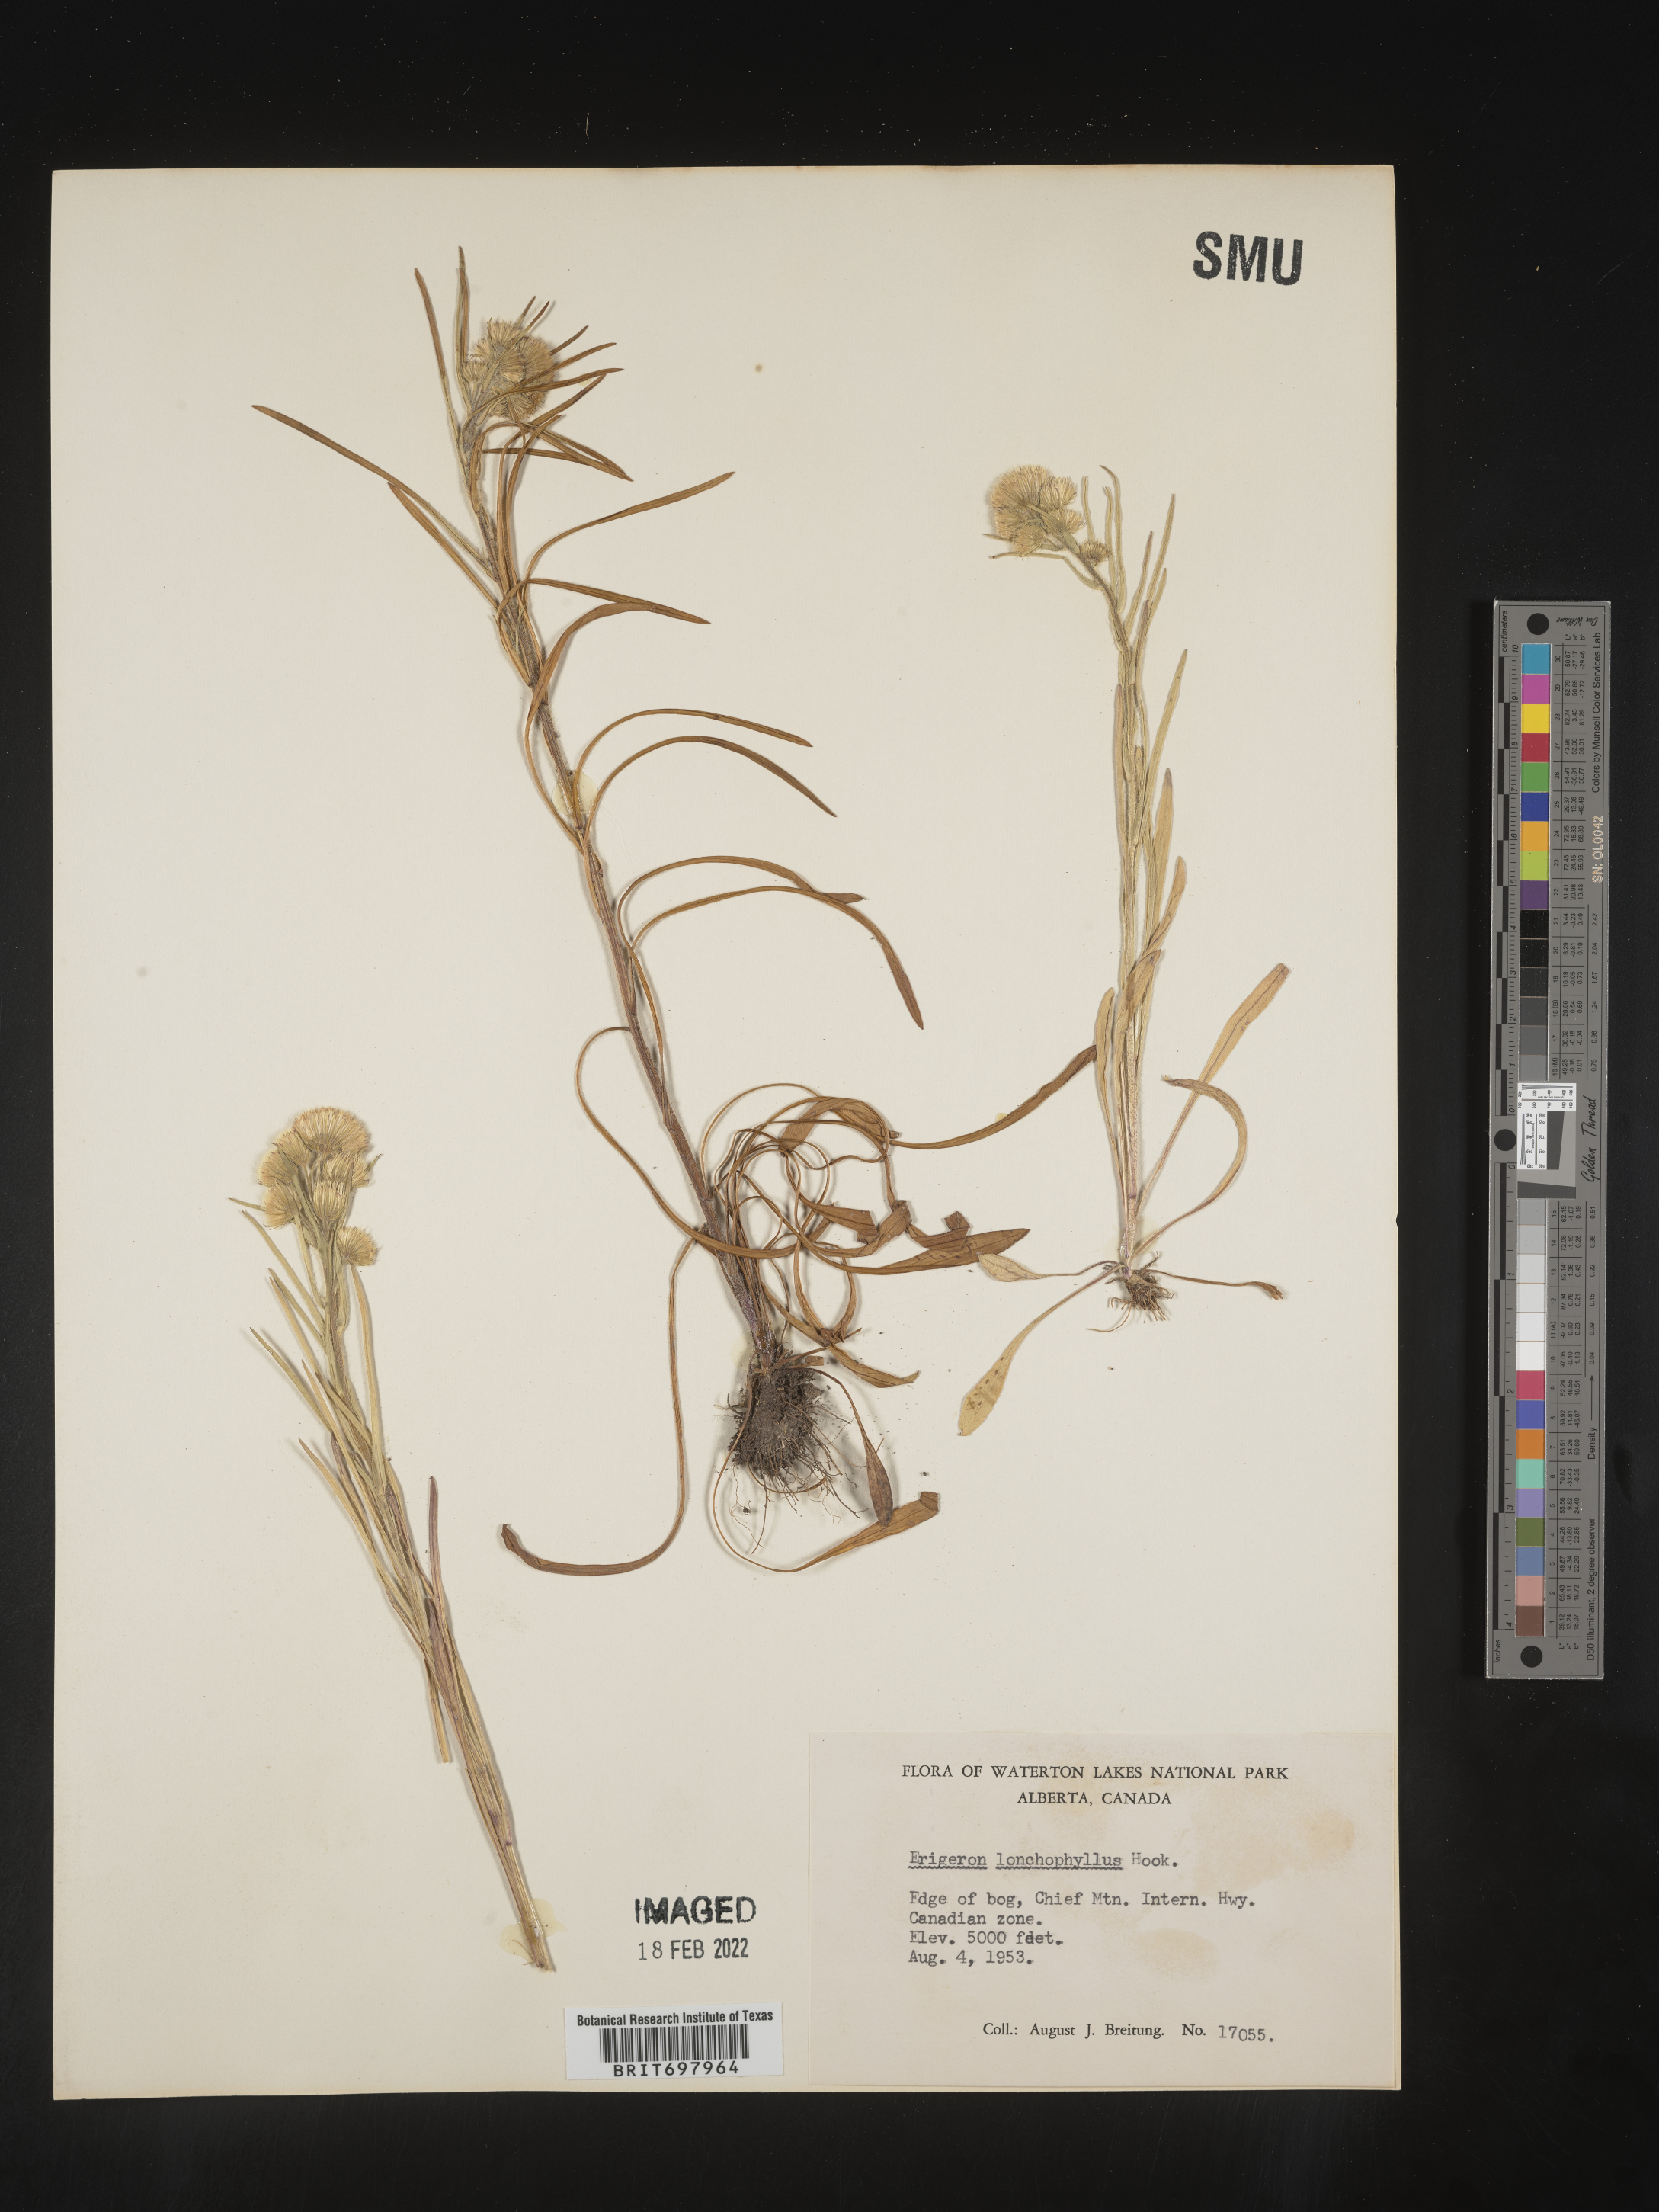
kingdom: Plantae
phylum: Tracheophyta
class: Magnoliopsida
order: Asterales
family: Asteraceae
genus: Erigeron
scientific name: Erigeron lonchophyllus
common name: Short-ray fleabane
